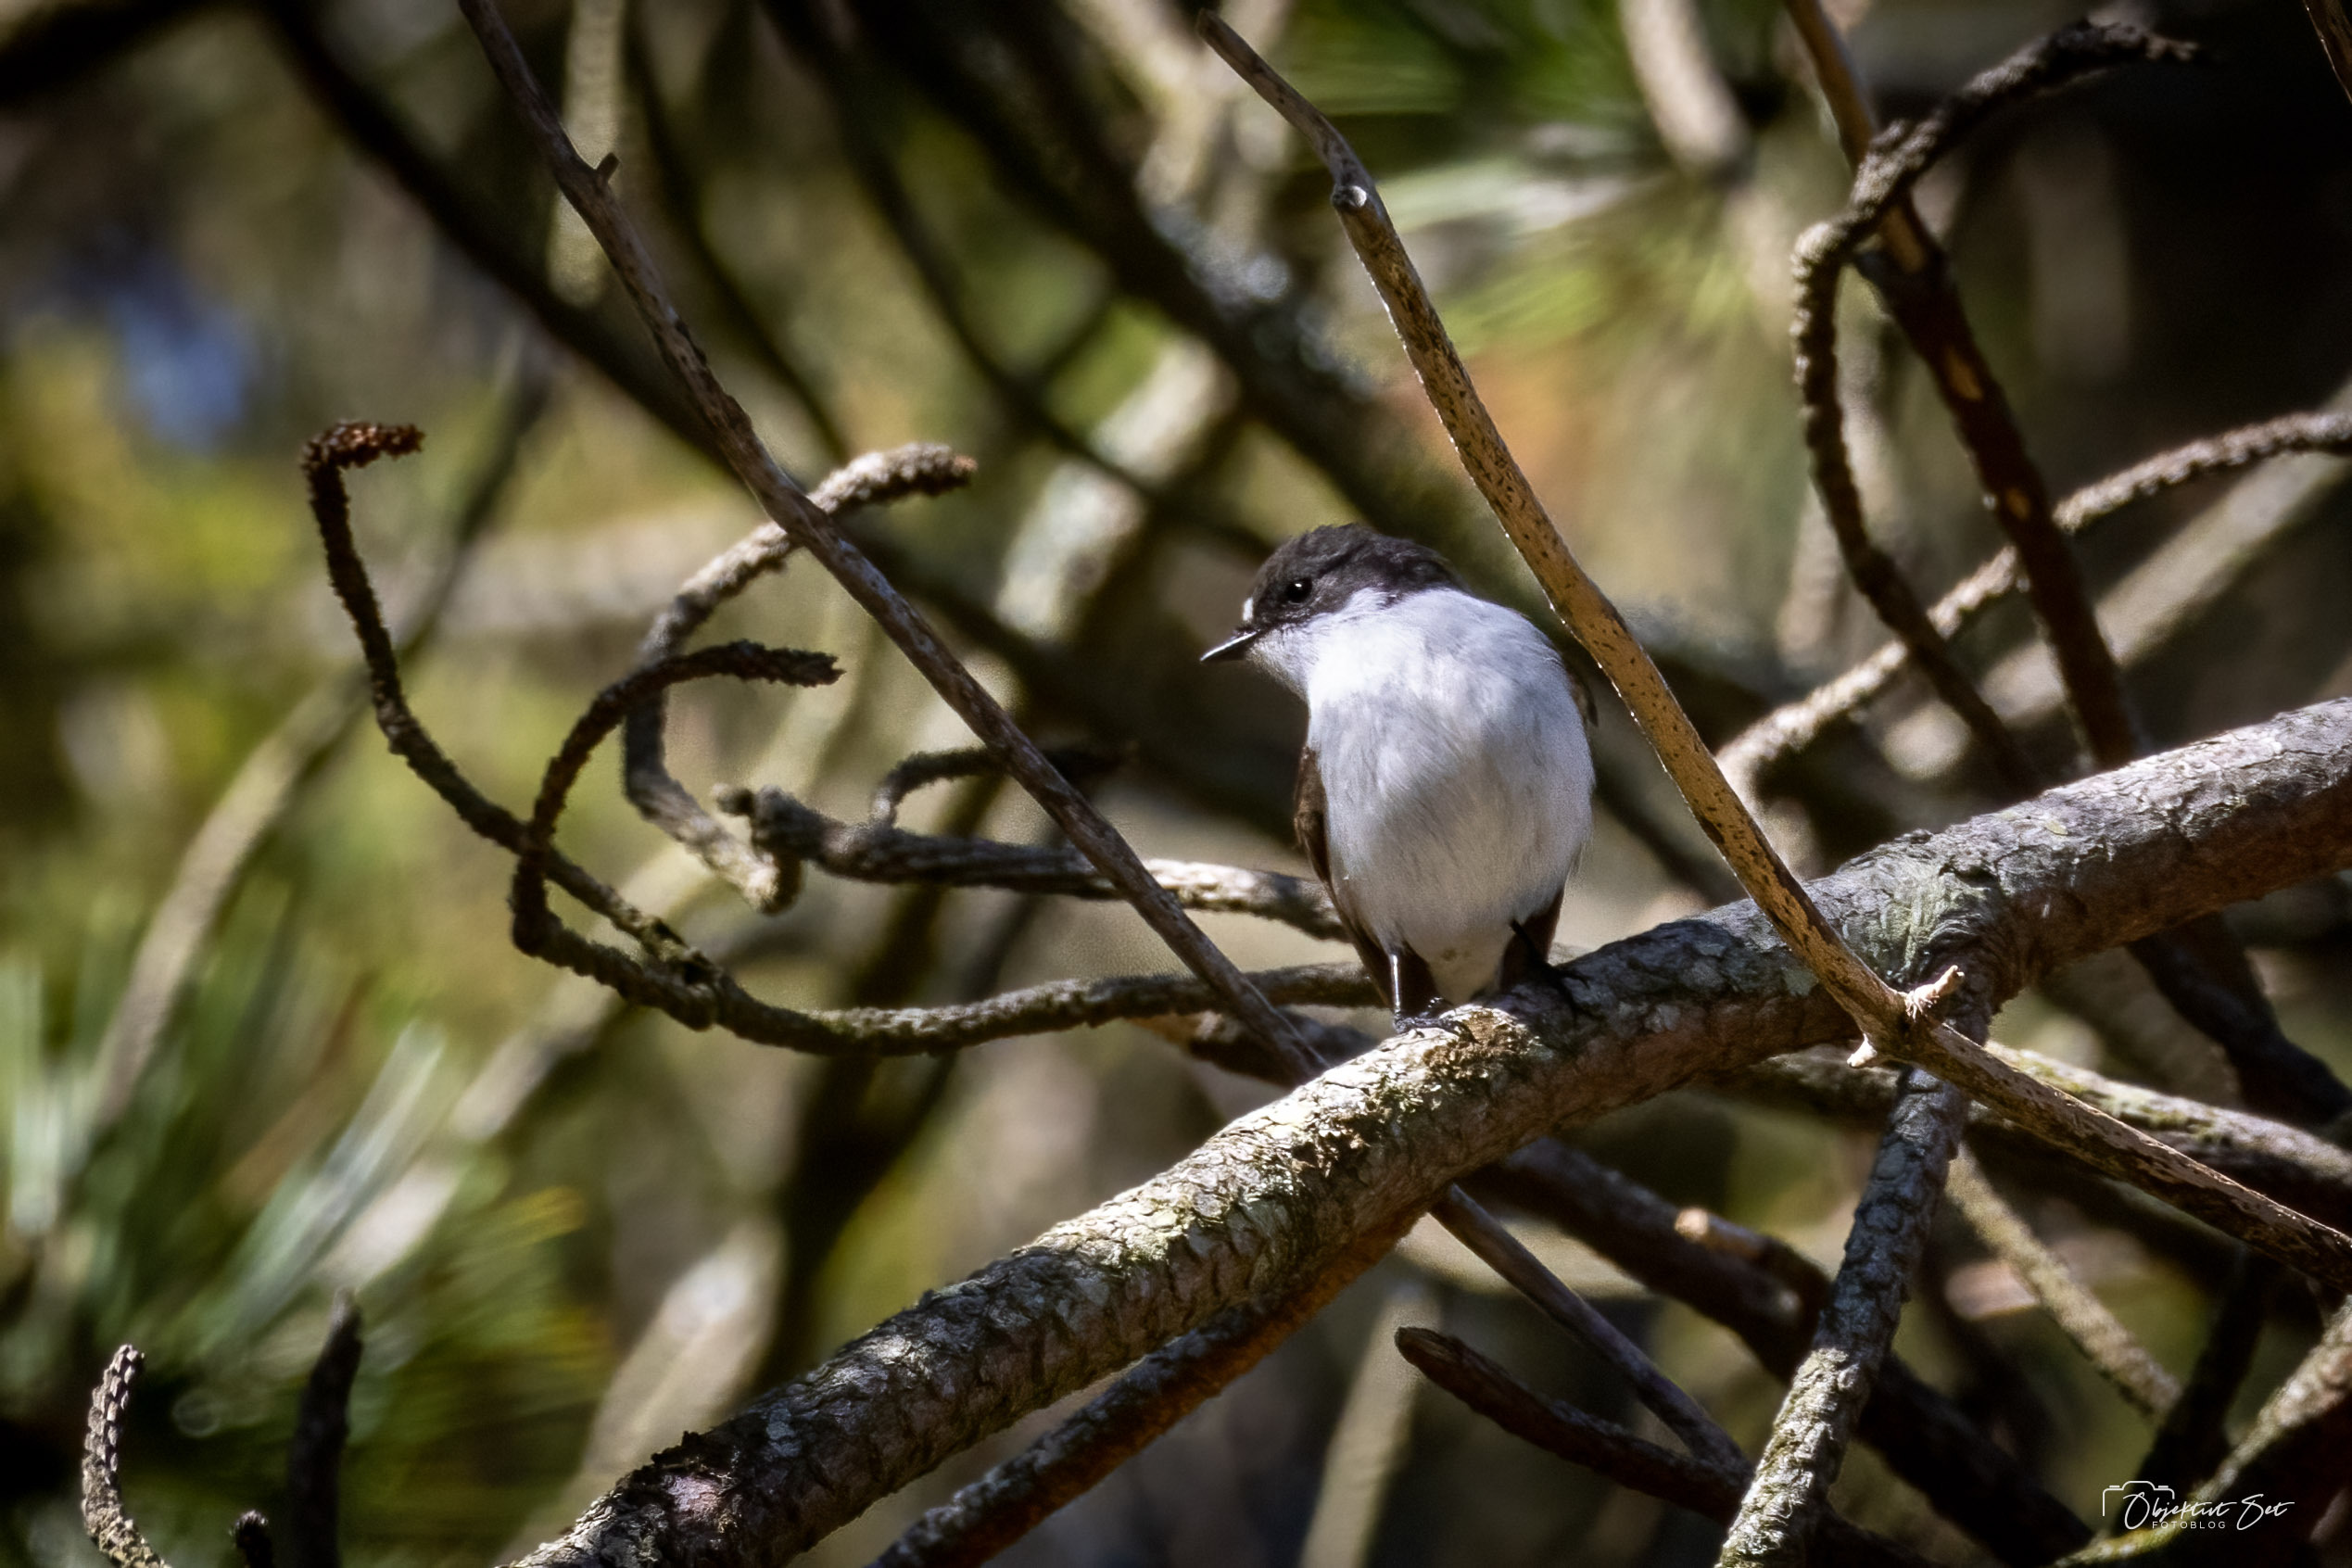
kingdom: Animalia
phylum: Chordata
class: Aves
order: Passeriformes
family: Muscicapidae
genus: Ficedula
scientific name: Ficedula hypoleuca
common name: Broget fluesnapper
